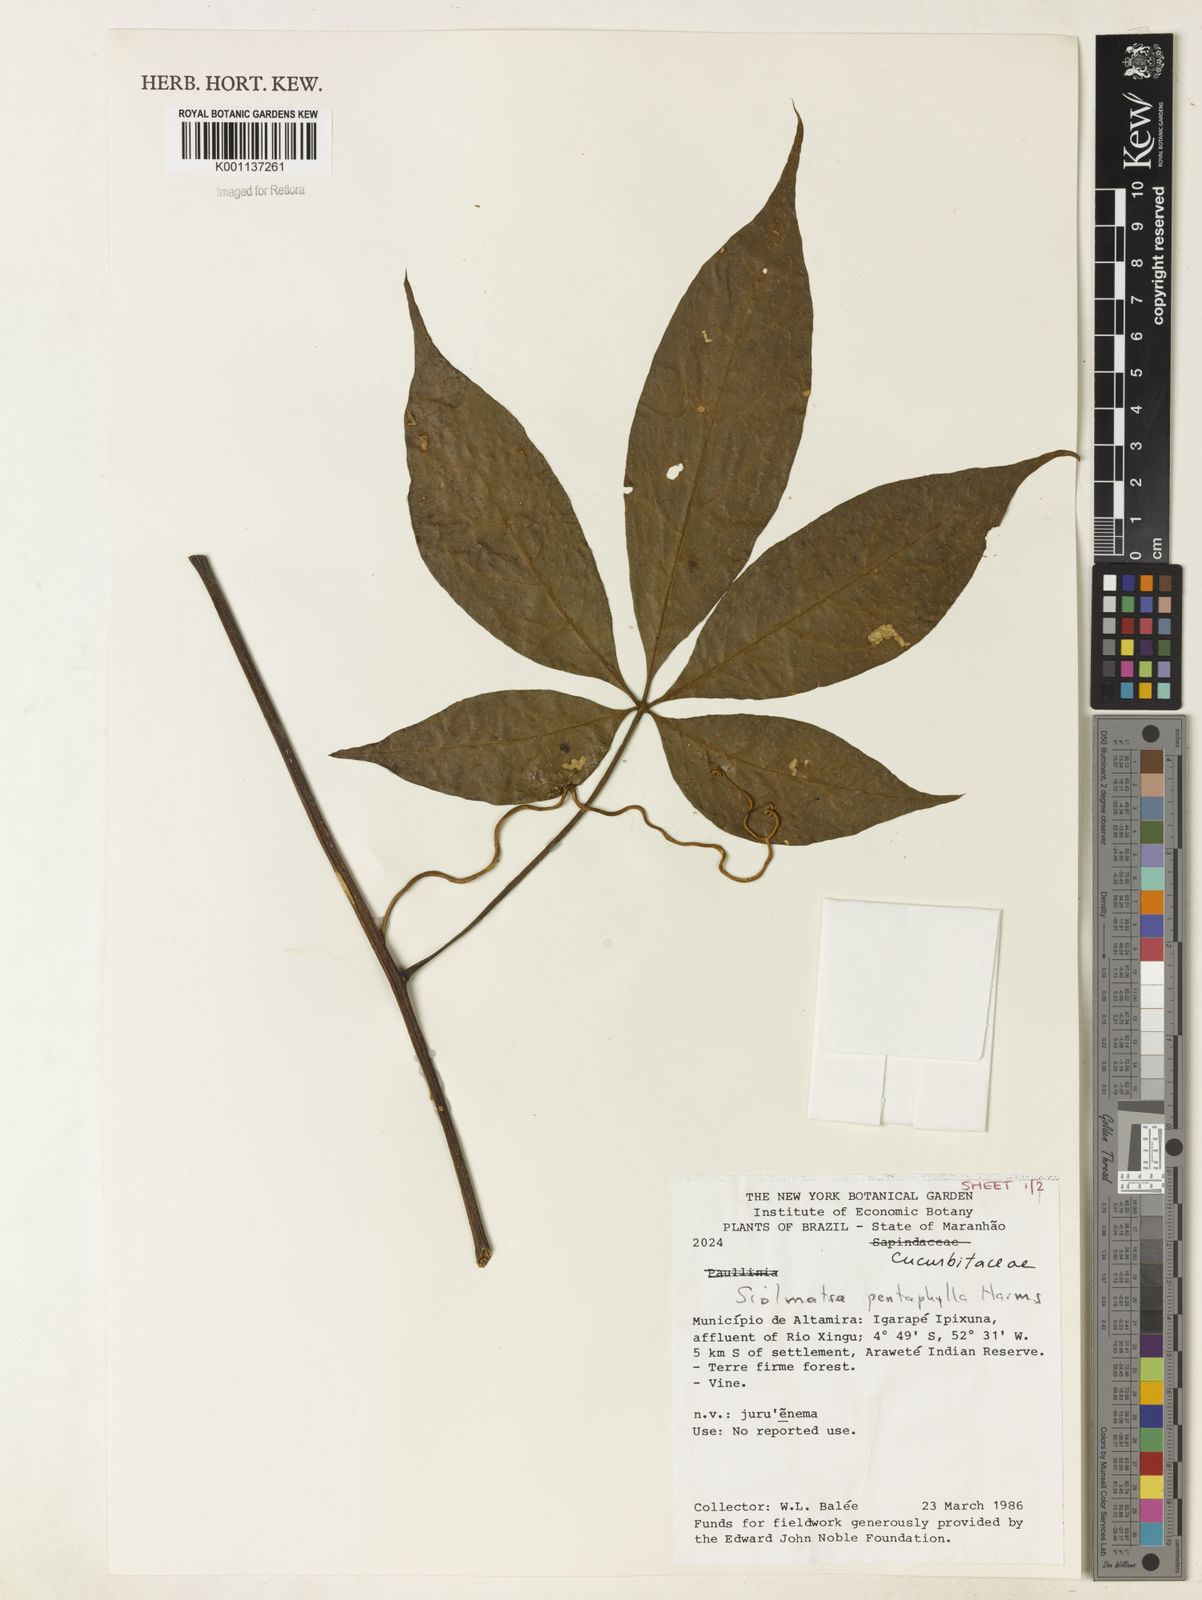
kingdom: Plantae
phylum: Tracheophyta
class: Magnoliopsida
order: Cucurbitales
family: Cucurbitaceae
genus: Siolmatra
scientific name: Siolmatra pentaphylla
